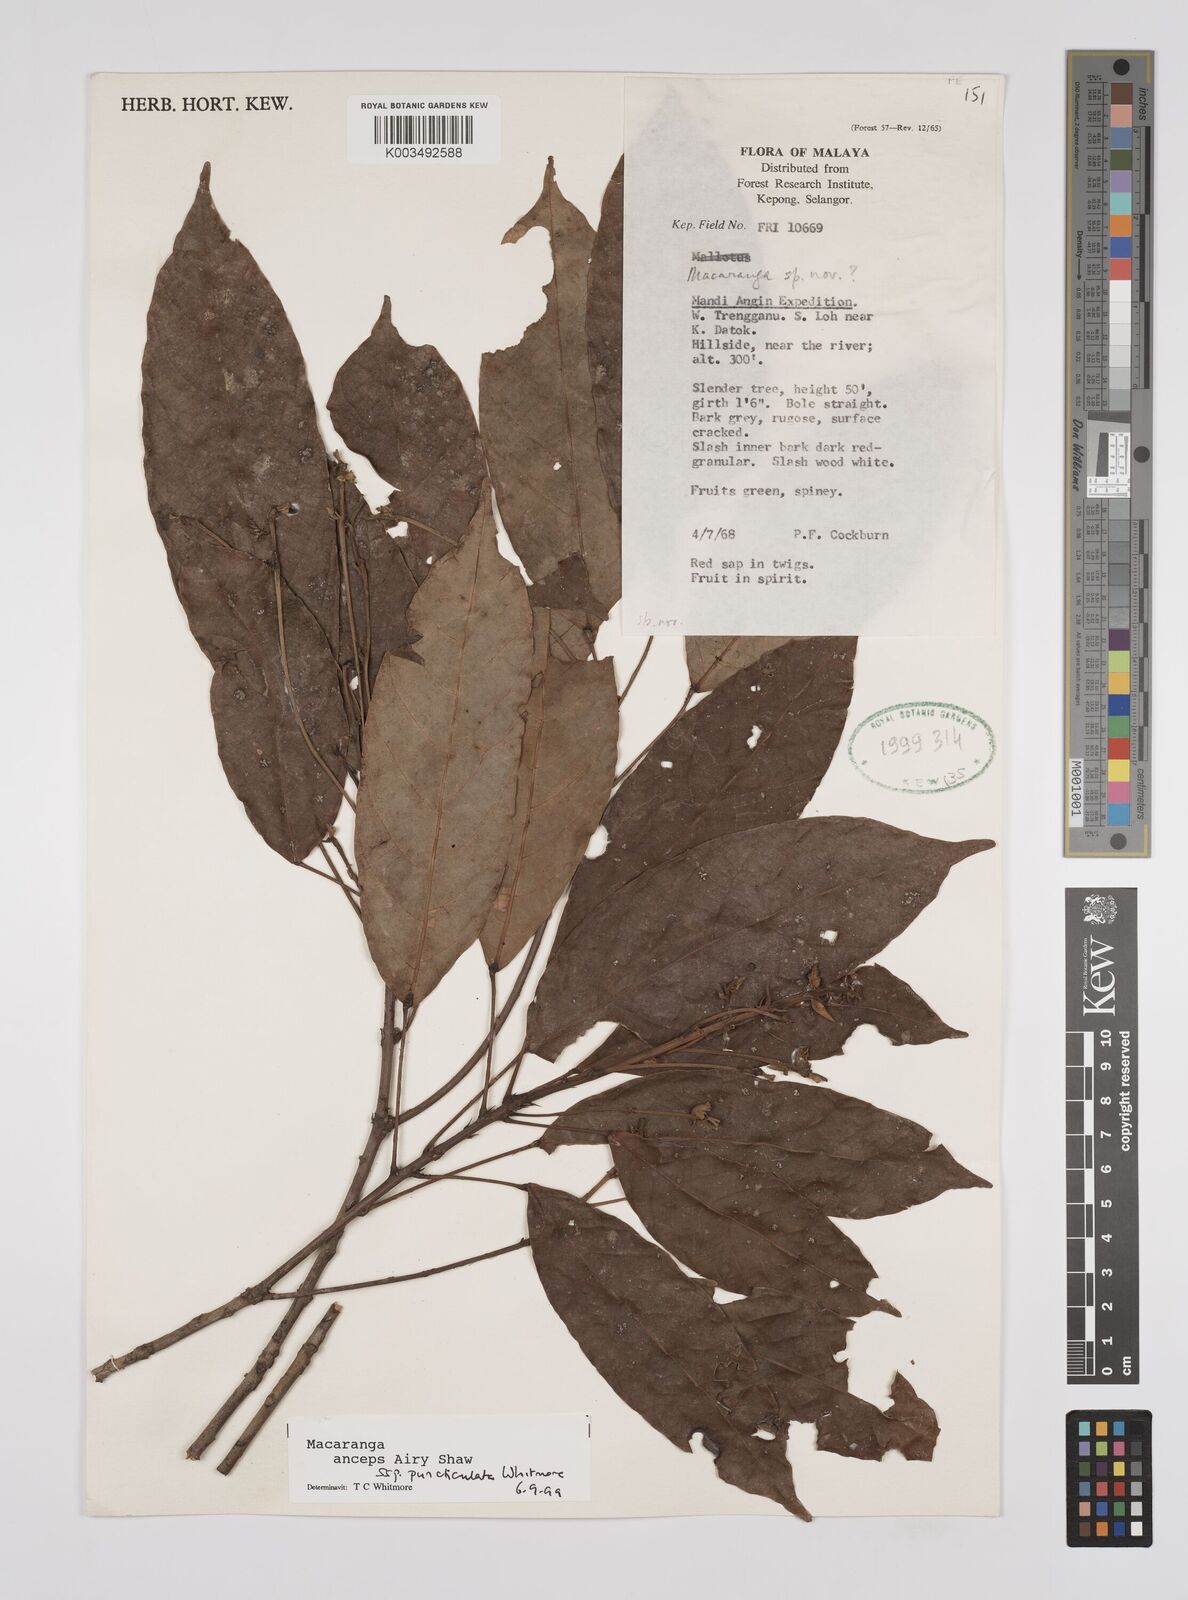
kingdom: Plantae
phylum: Tracheophyta
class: Magnoliopsida
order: Malpighiales
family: Euphorbiaceae
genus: Macaranga
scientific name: Macaranga anceps
